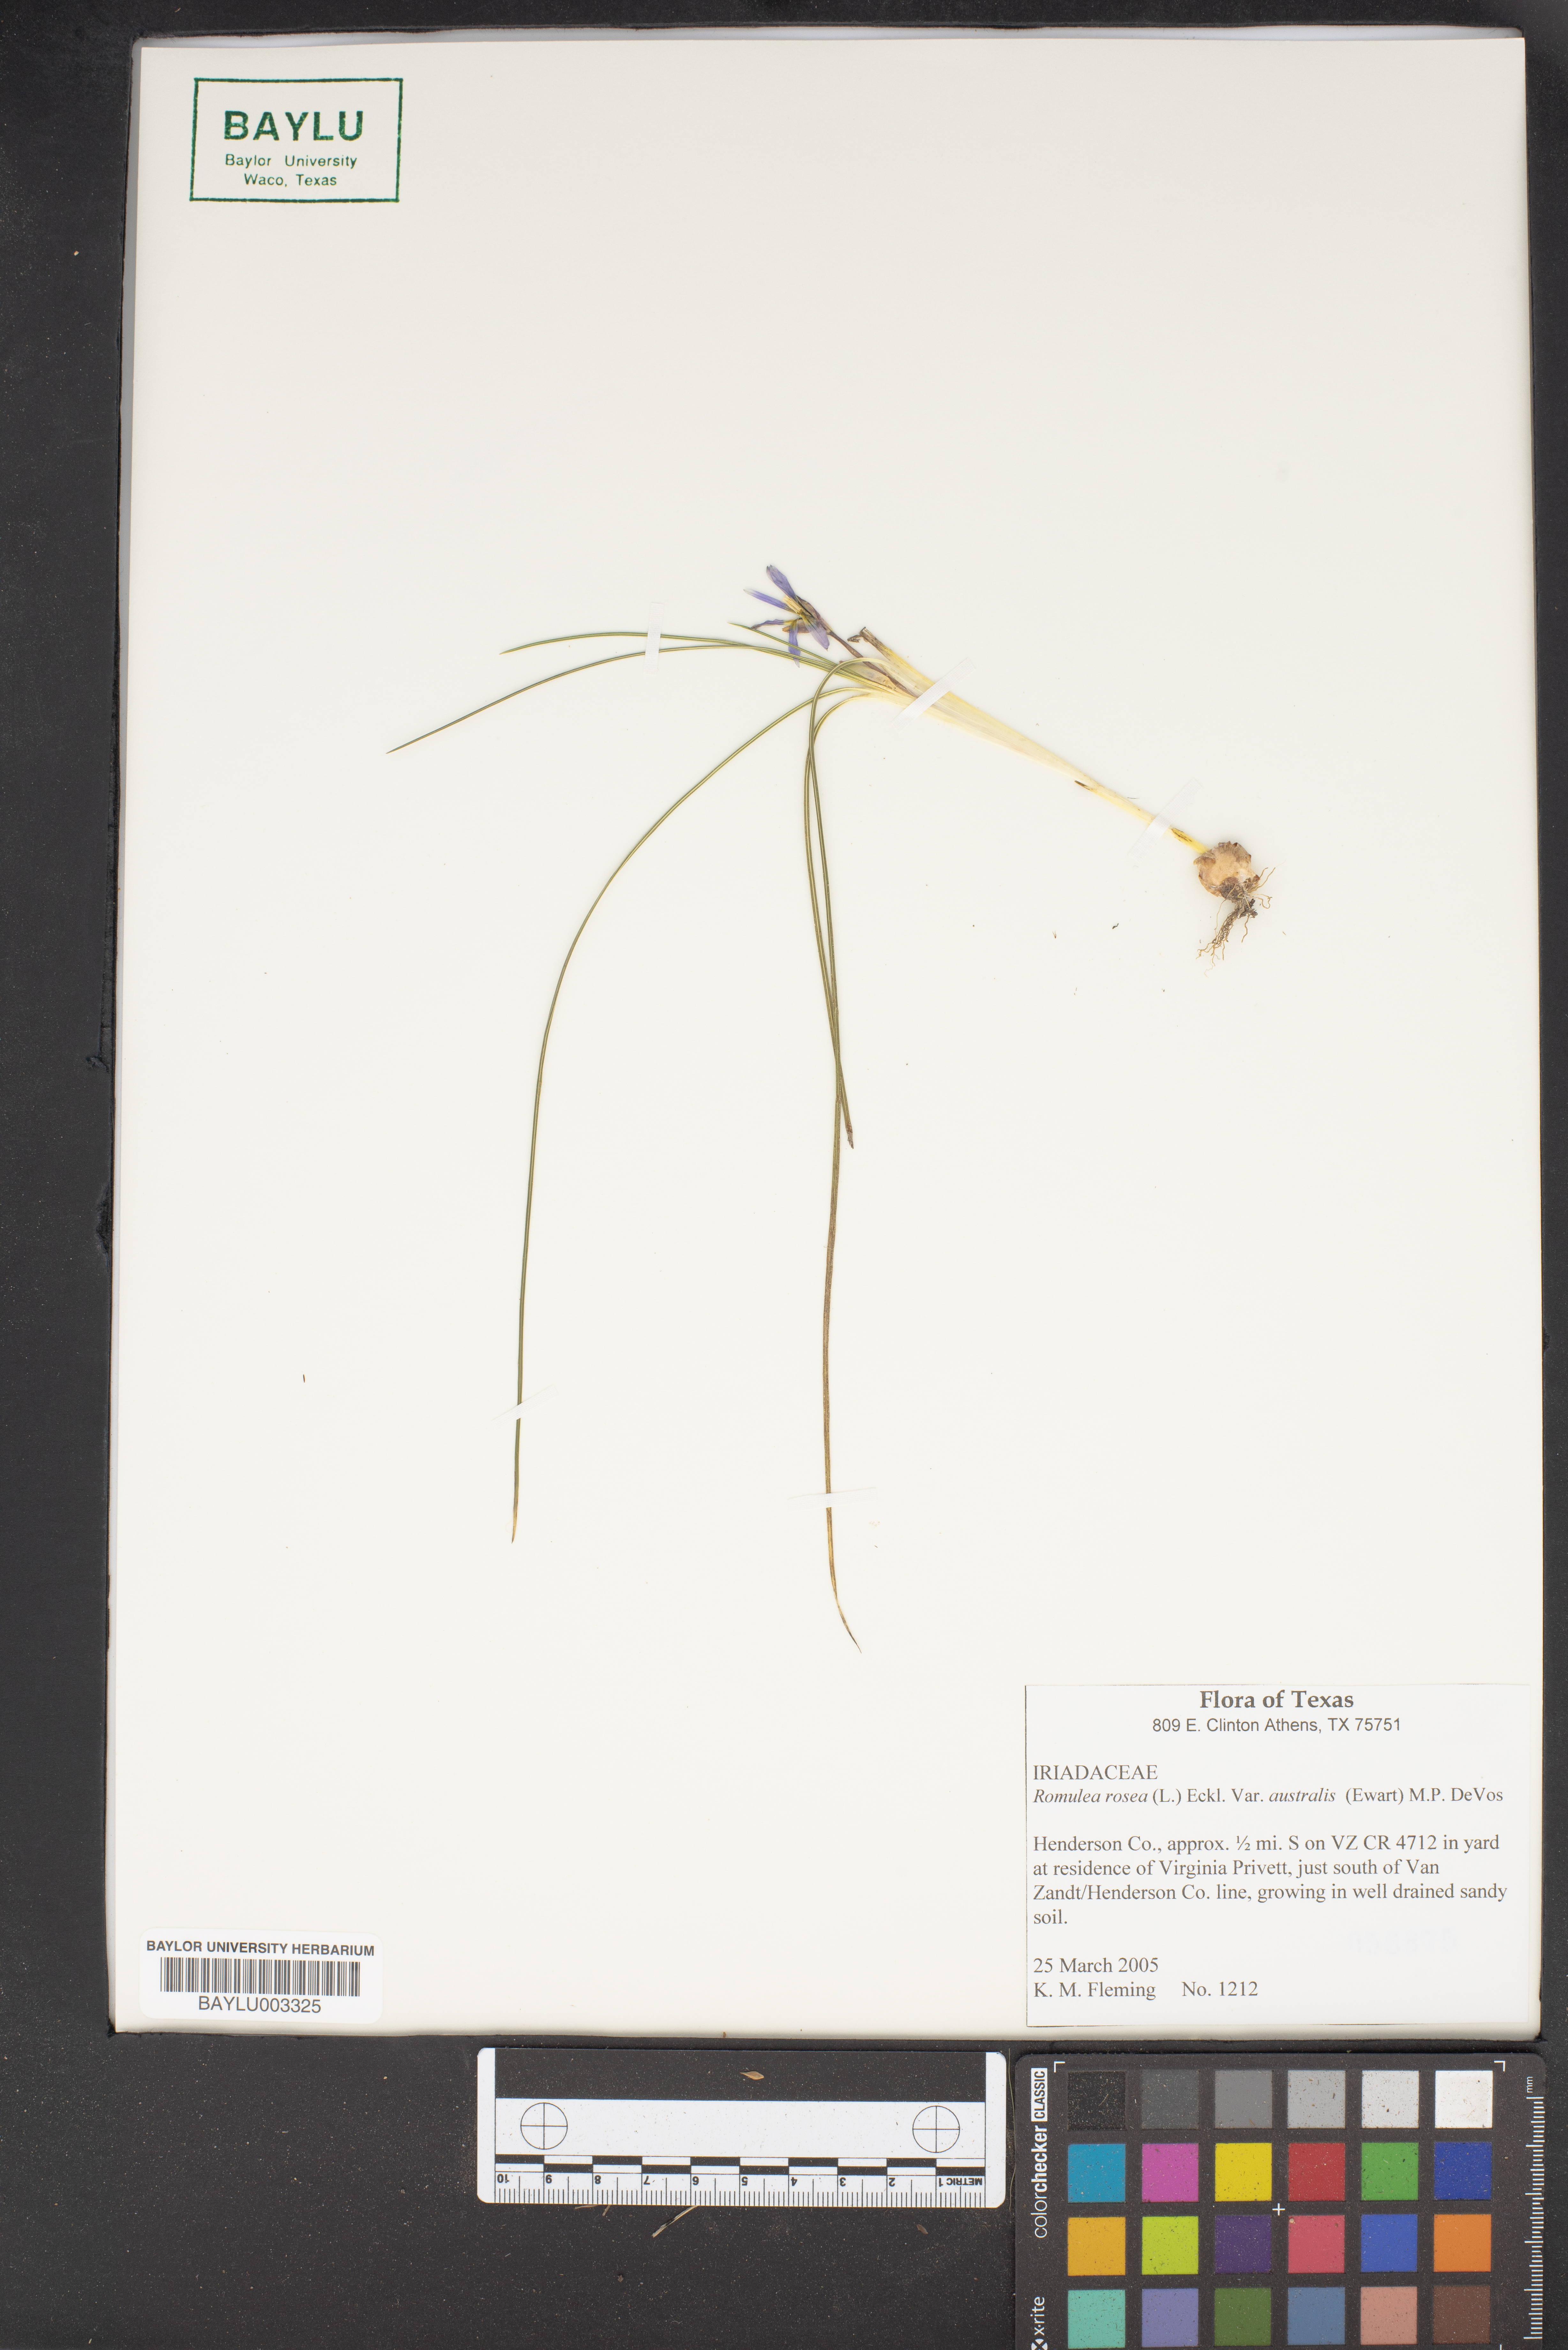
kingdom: Plantae
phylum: Tracheophyta
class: Liliopsida
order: Asparagales
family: Iridaceae
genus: Romulea
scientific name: Romulea rosea
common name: Oniongrass
